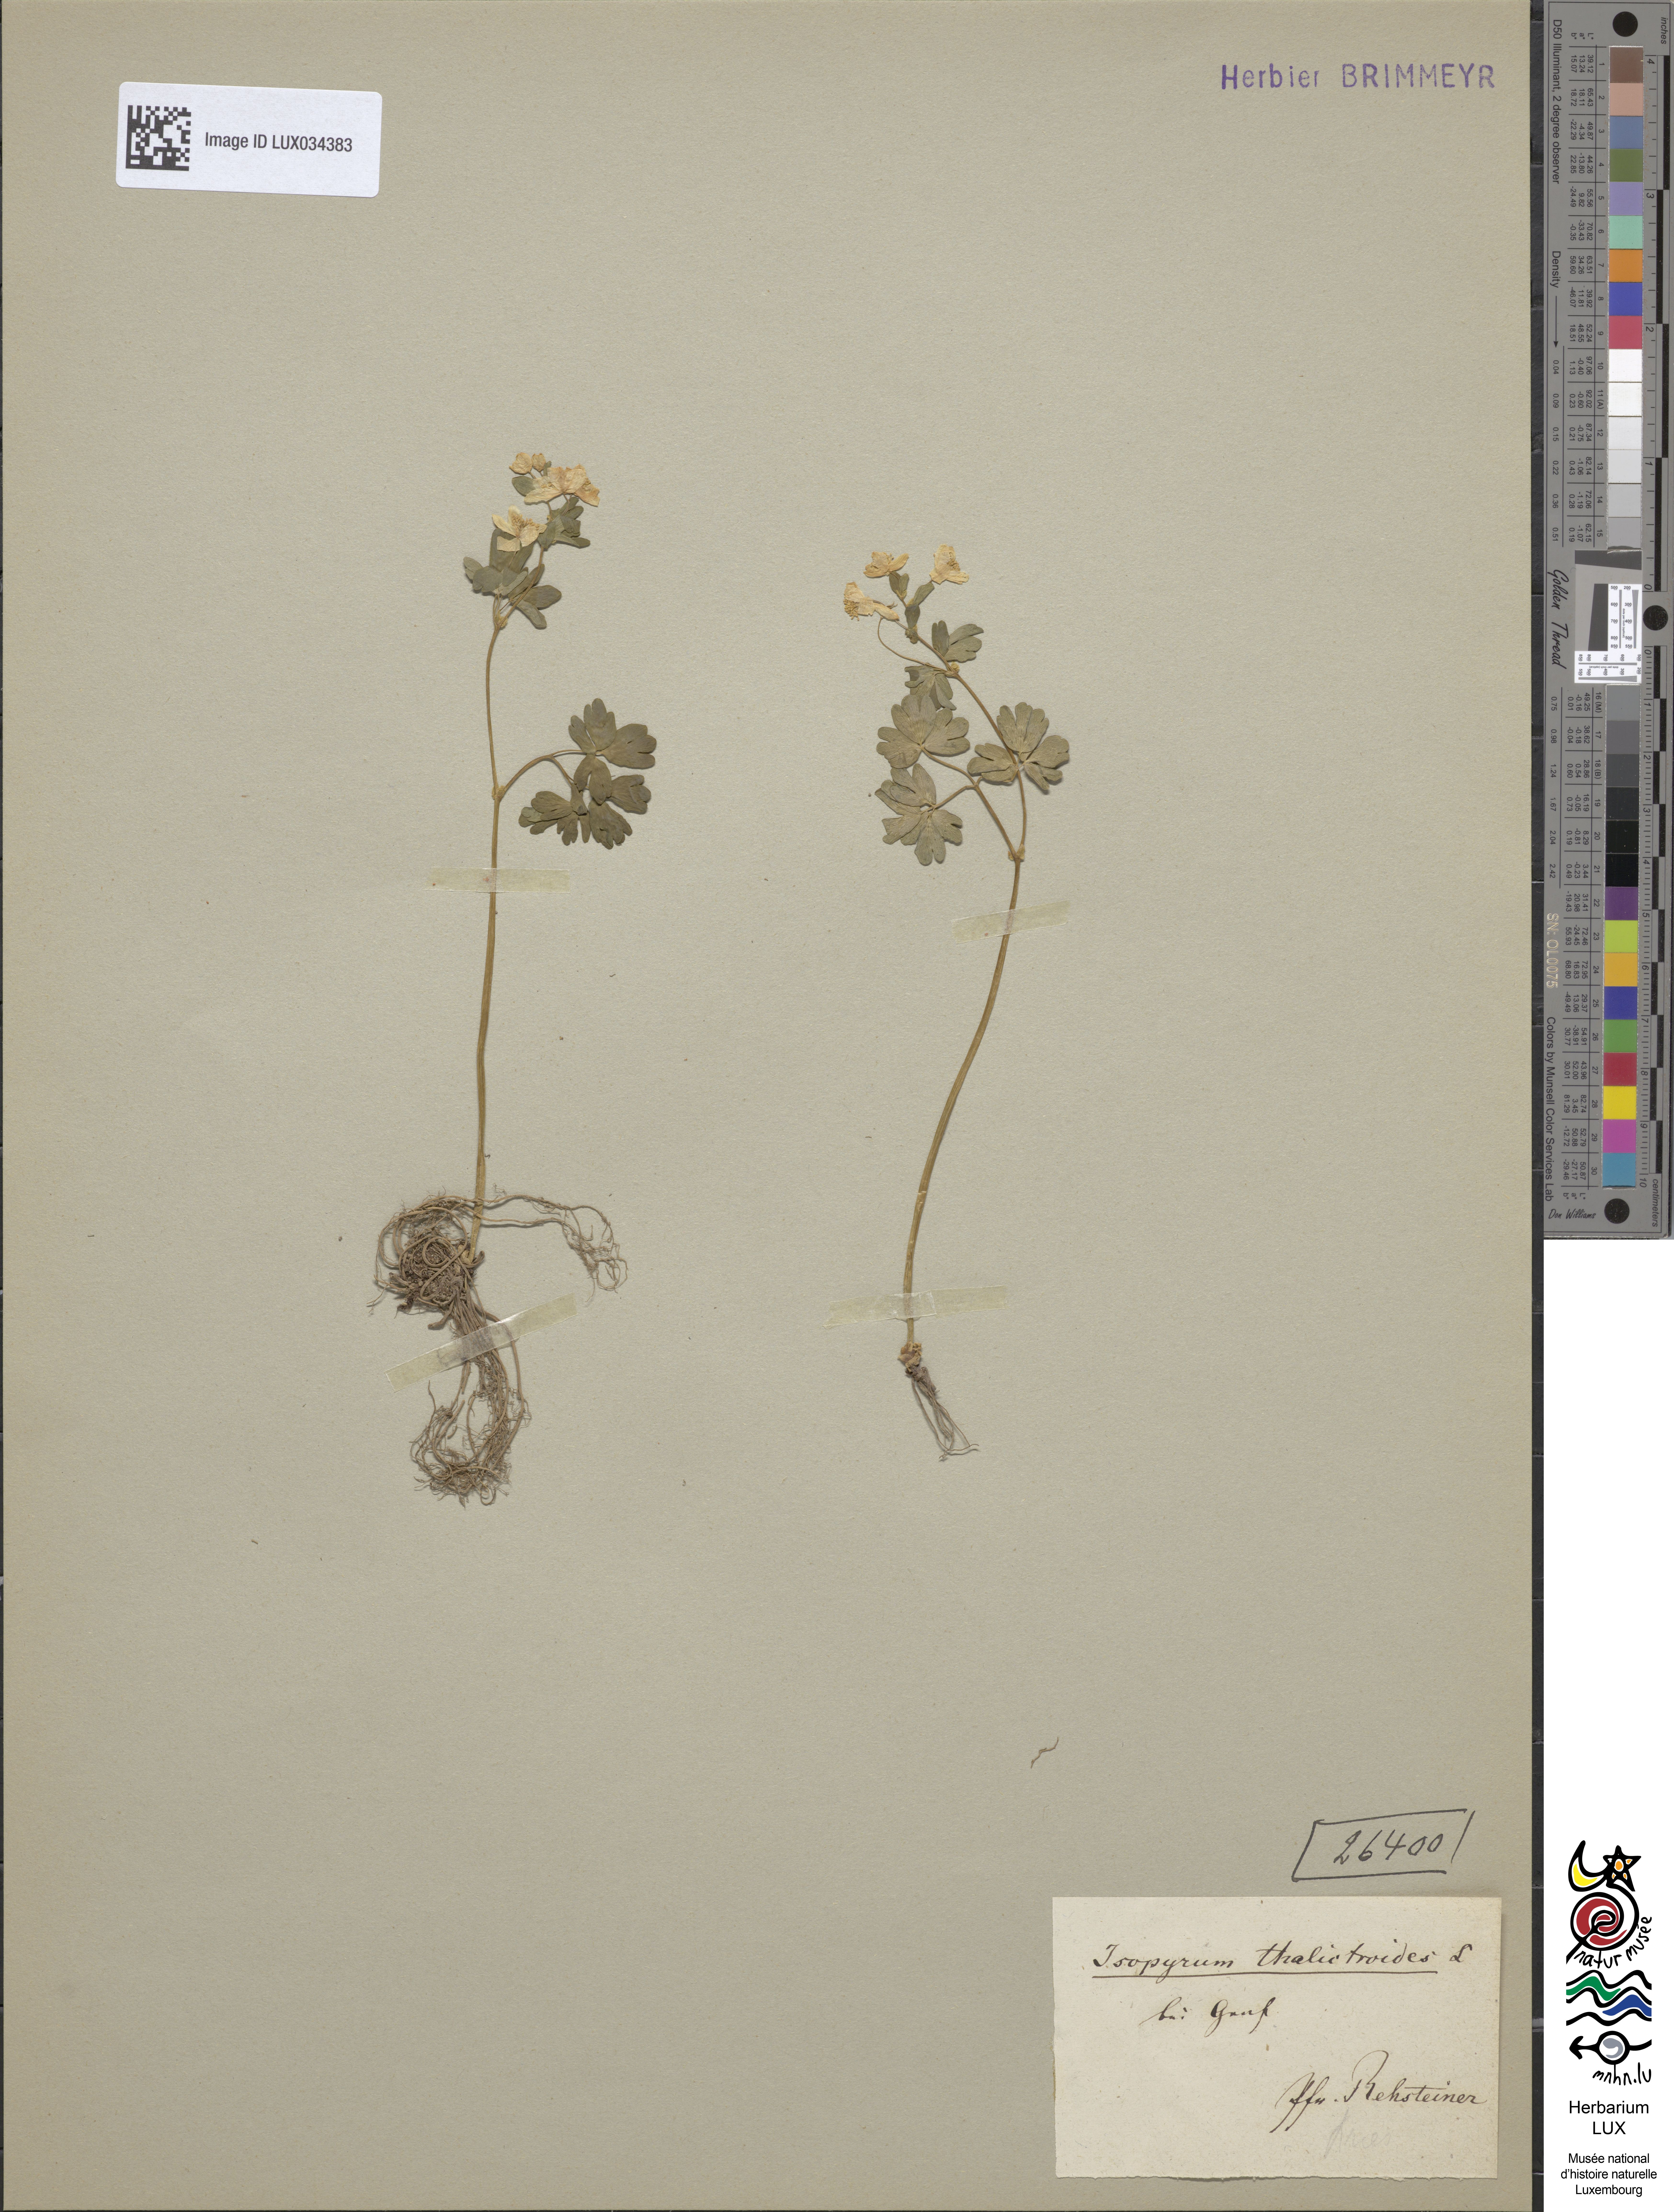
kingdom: Plantae
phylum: Tracheophyta
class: Magnoliopsida
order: Ranunculales
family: Ranunculaceae
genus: Isopyrum
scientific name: Isopyrum thalictroides
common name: Isopyrum
